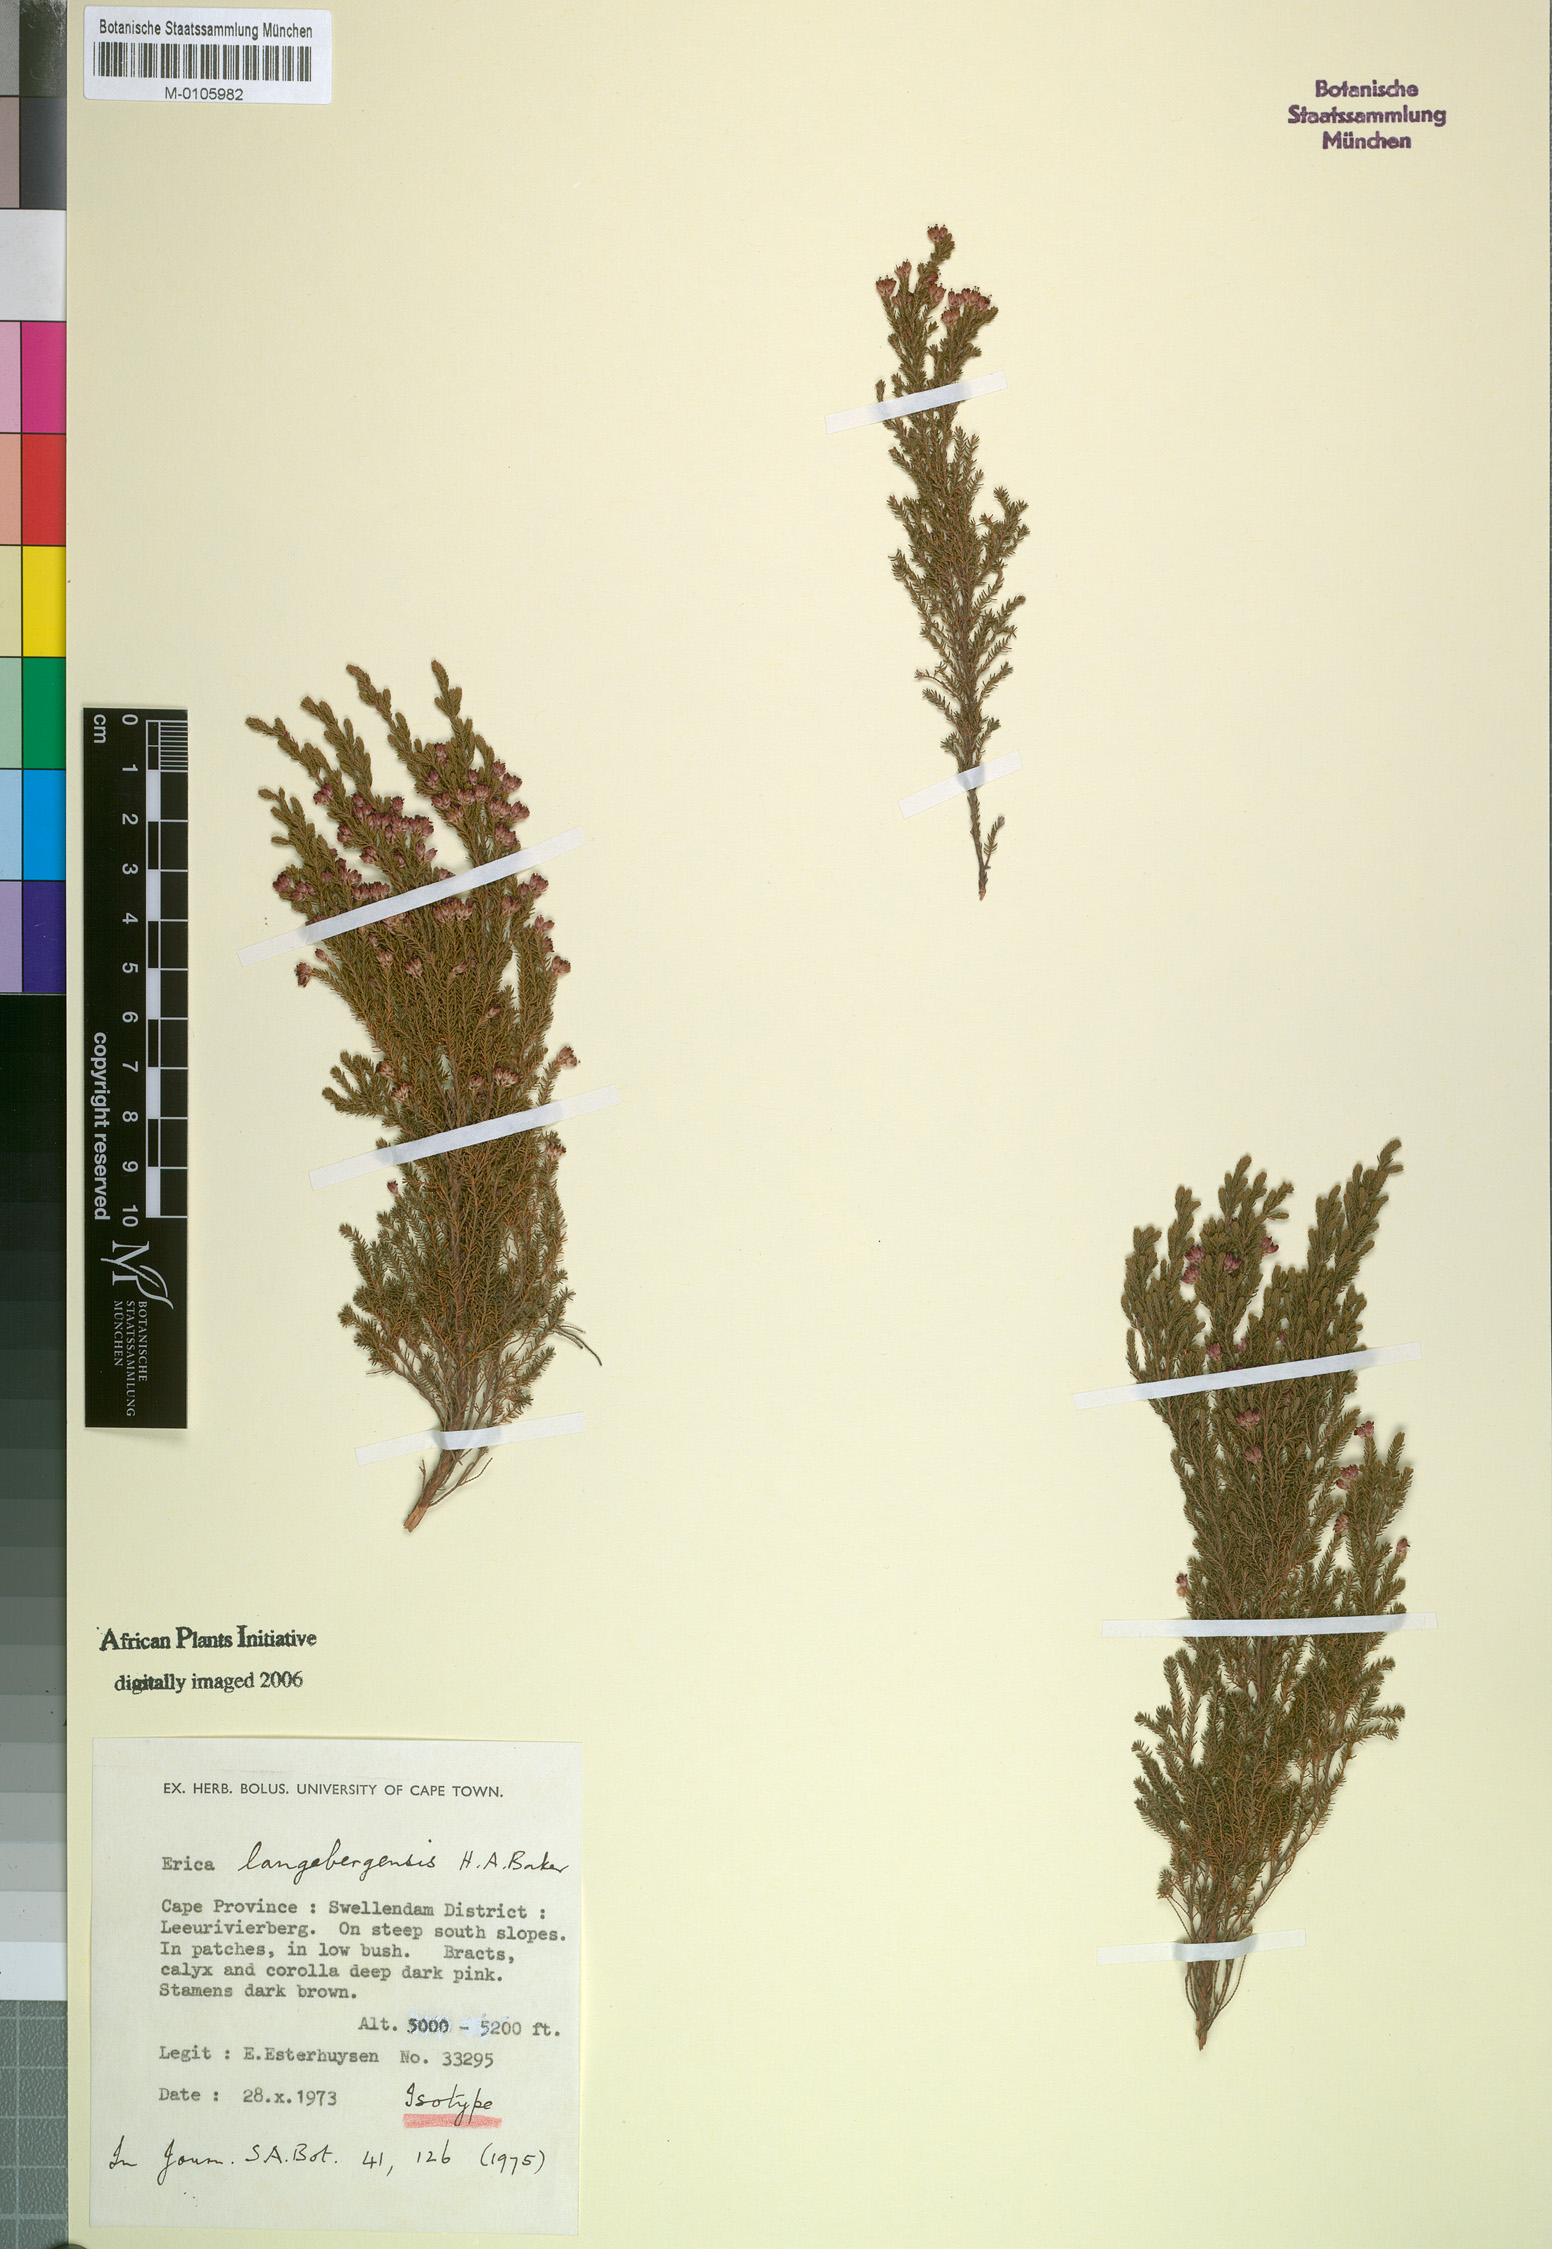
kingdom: Plantae
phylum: Tracheophyta
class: Magnoliopsida
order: Ericales
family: Ericaceae
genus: Erica
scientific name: Erica langebergensis
